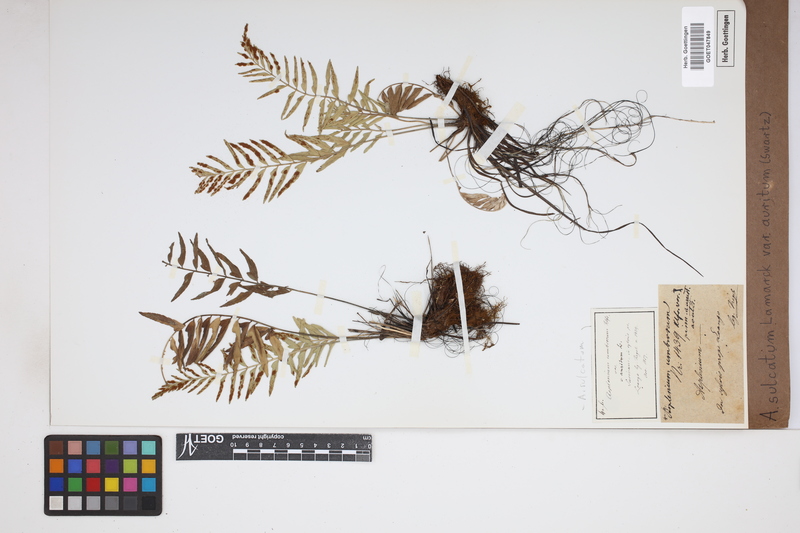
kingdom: Plantae
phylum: Tracheophyta
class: Polypodiopsida
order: Polypodiales
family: Aspleniaceae
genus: Asplenium
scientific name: Asplenium auritum
